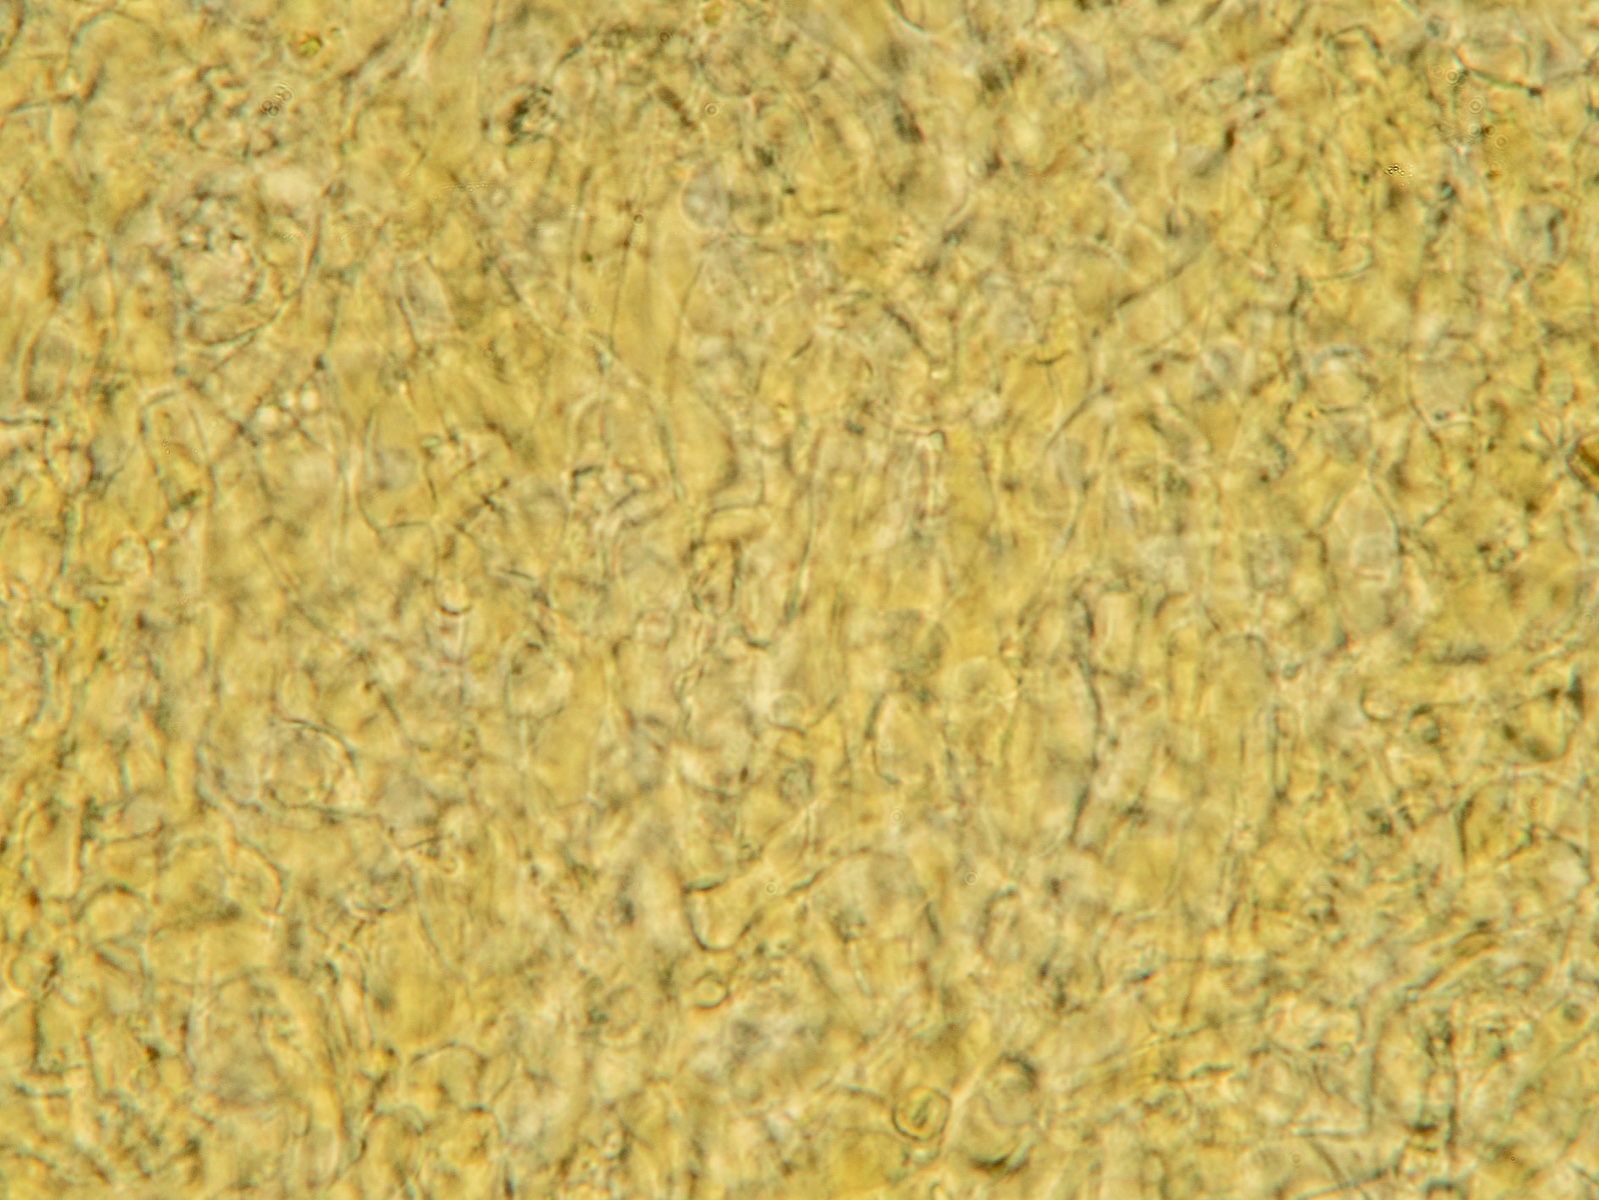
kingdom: Fungi
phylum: Basidiomycota
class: Agaricomycetes
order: Agaricales
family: Lyophyllaceae
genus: Calocybe
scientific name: Calocybe chrysenteron
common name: brandgul fagerhat
